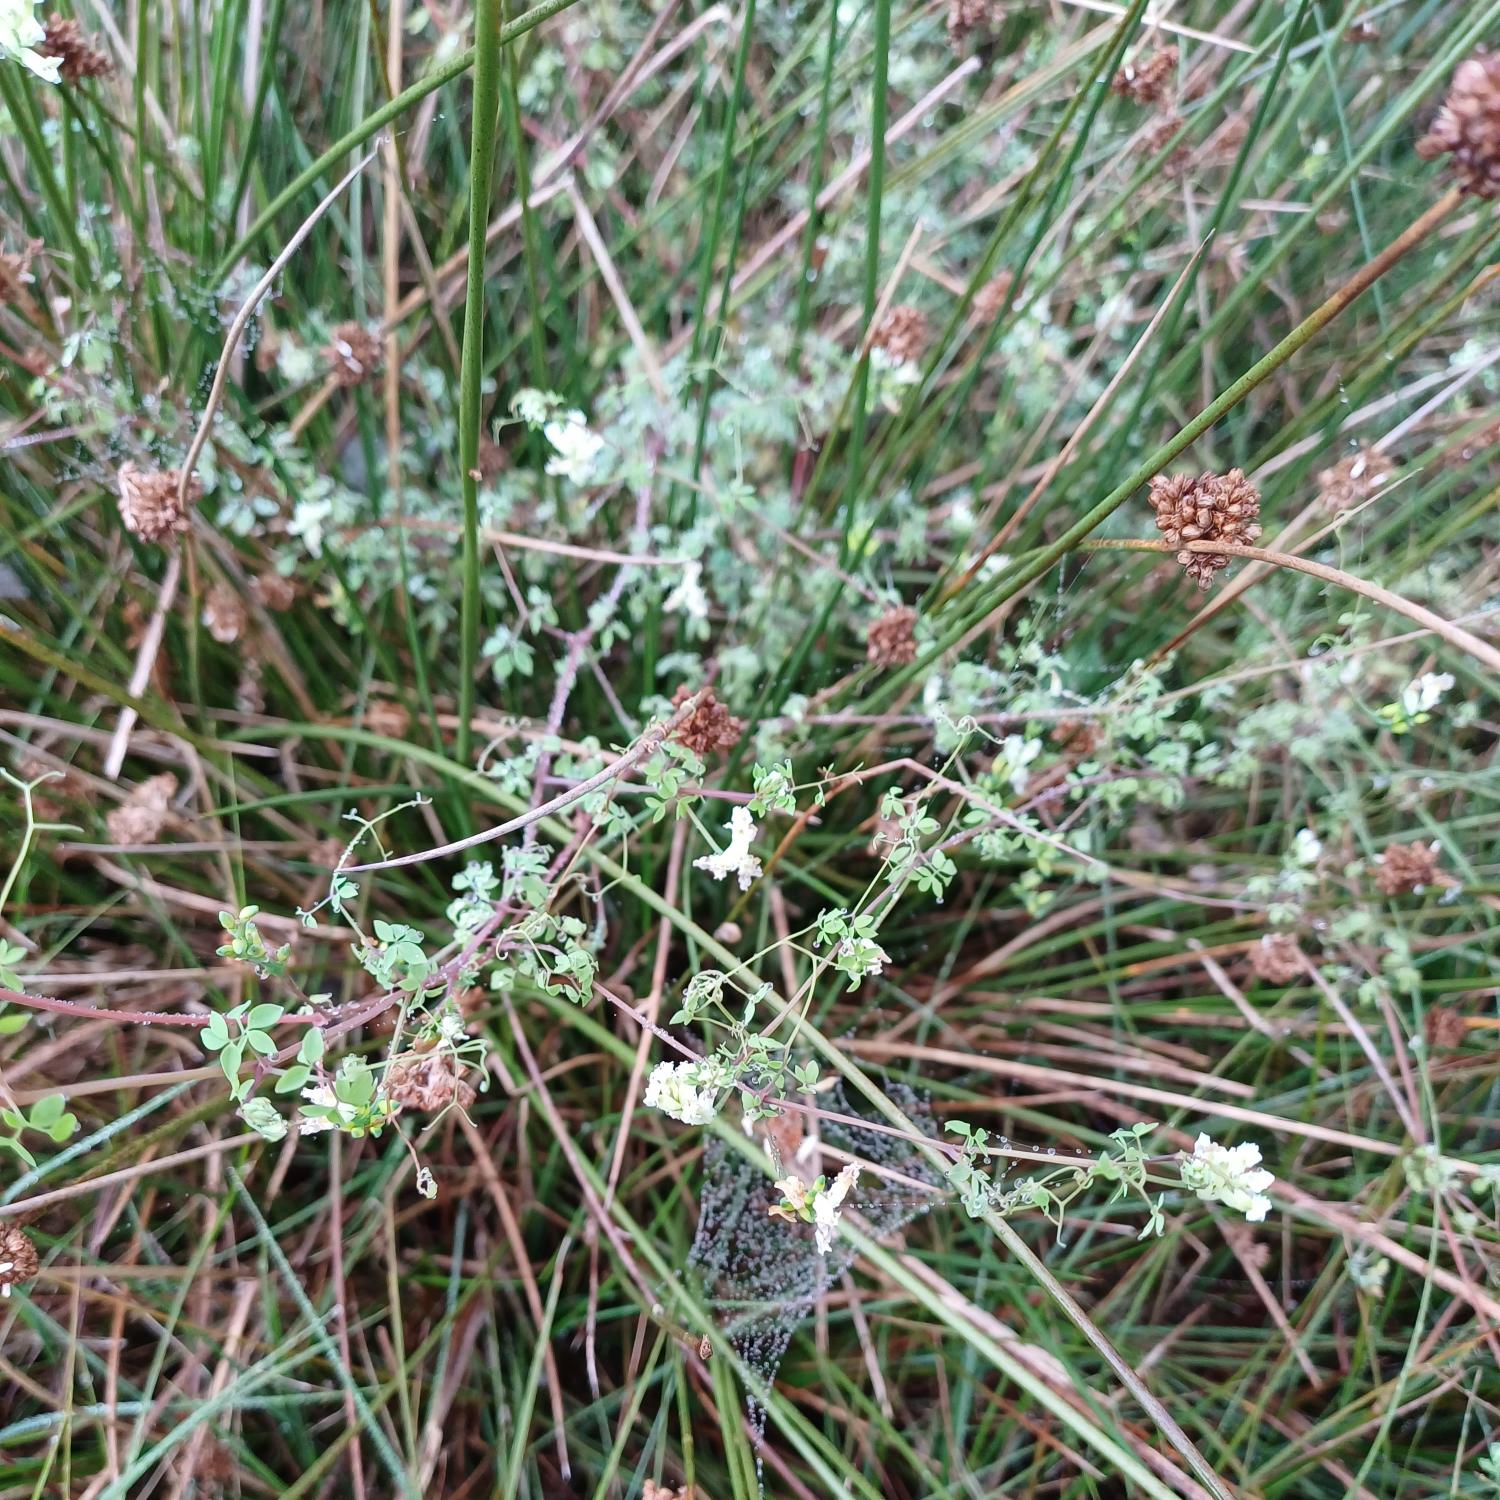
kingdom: Plantae
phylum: Tracheophyta
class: Magnoliopsida
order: Ranunculales
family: Papaveraceae
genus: Ceratocapnos
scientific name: Ceratocapnos claviculata
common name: Klatrende lærkespore
